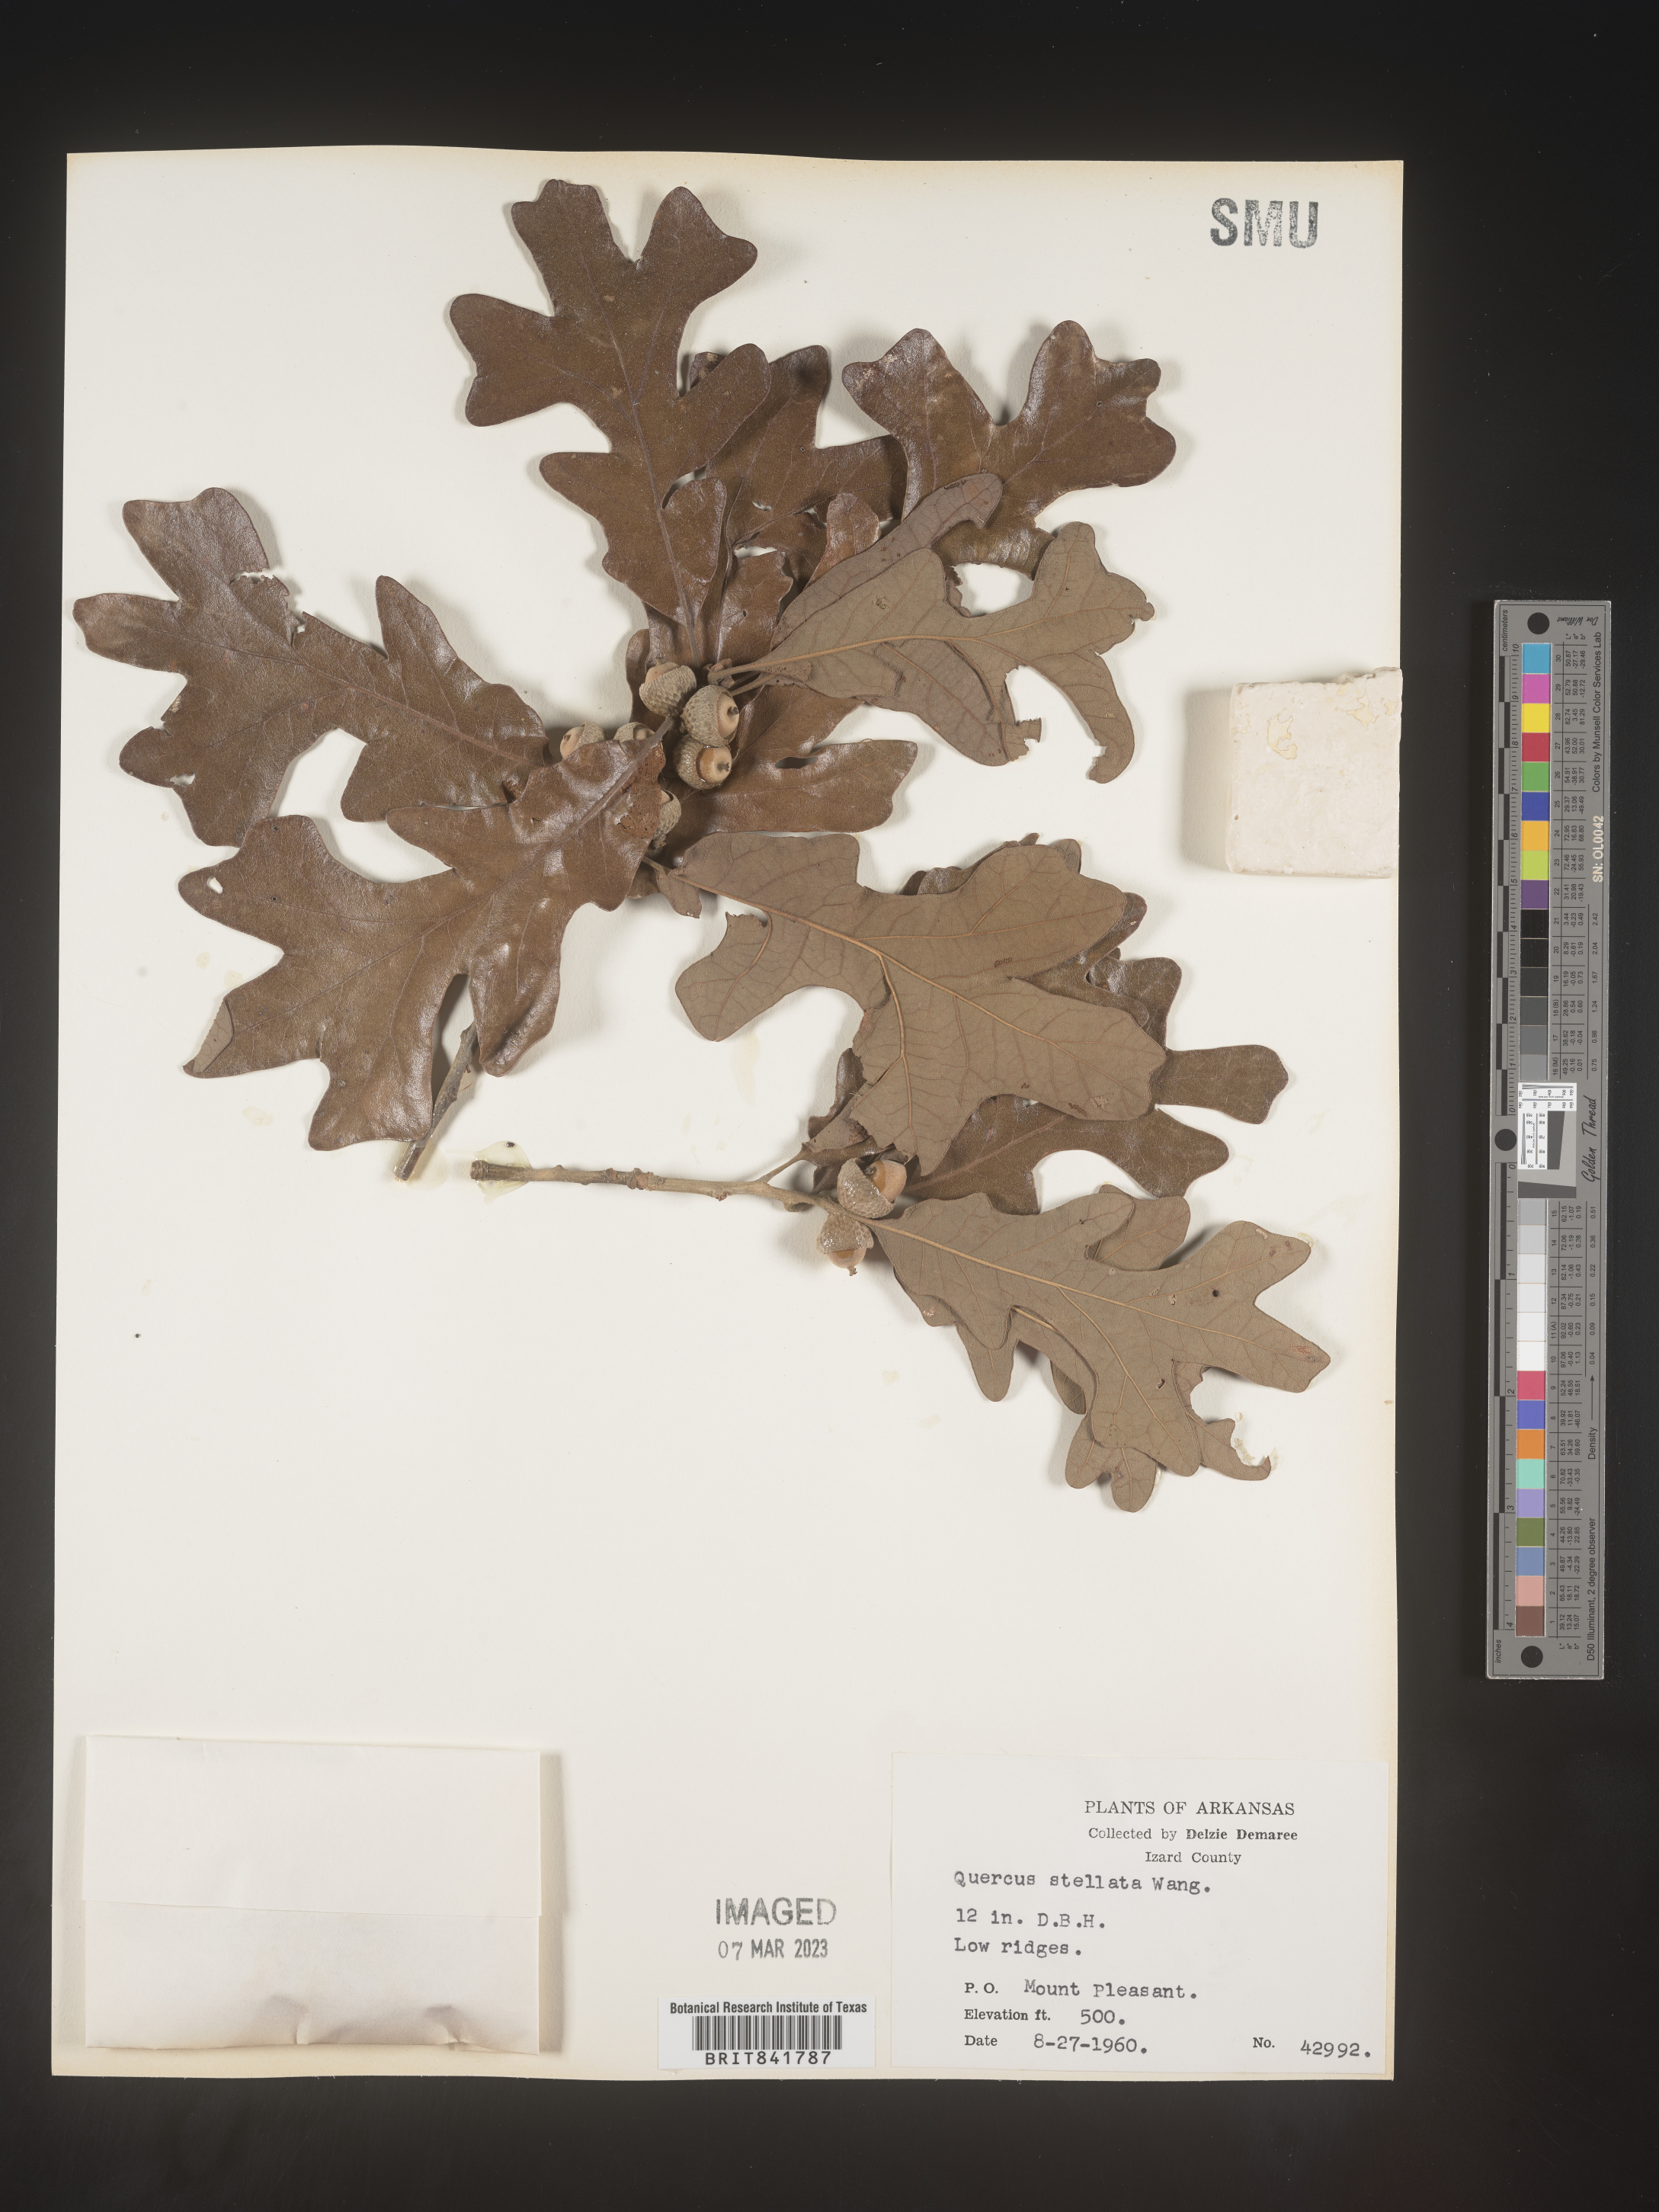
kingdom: Plantae
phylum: Tracheophyta
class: Magnoliopsida
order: Fagales
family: Fagaceae
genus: Quercus
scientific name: Quercus stellata
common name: Post oak
